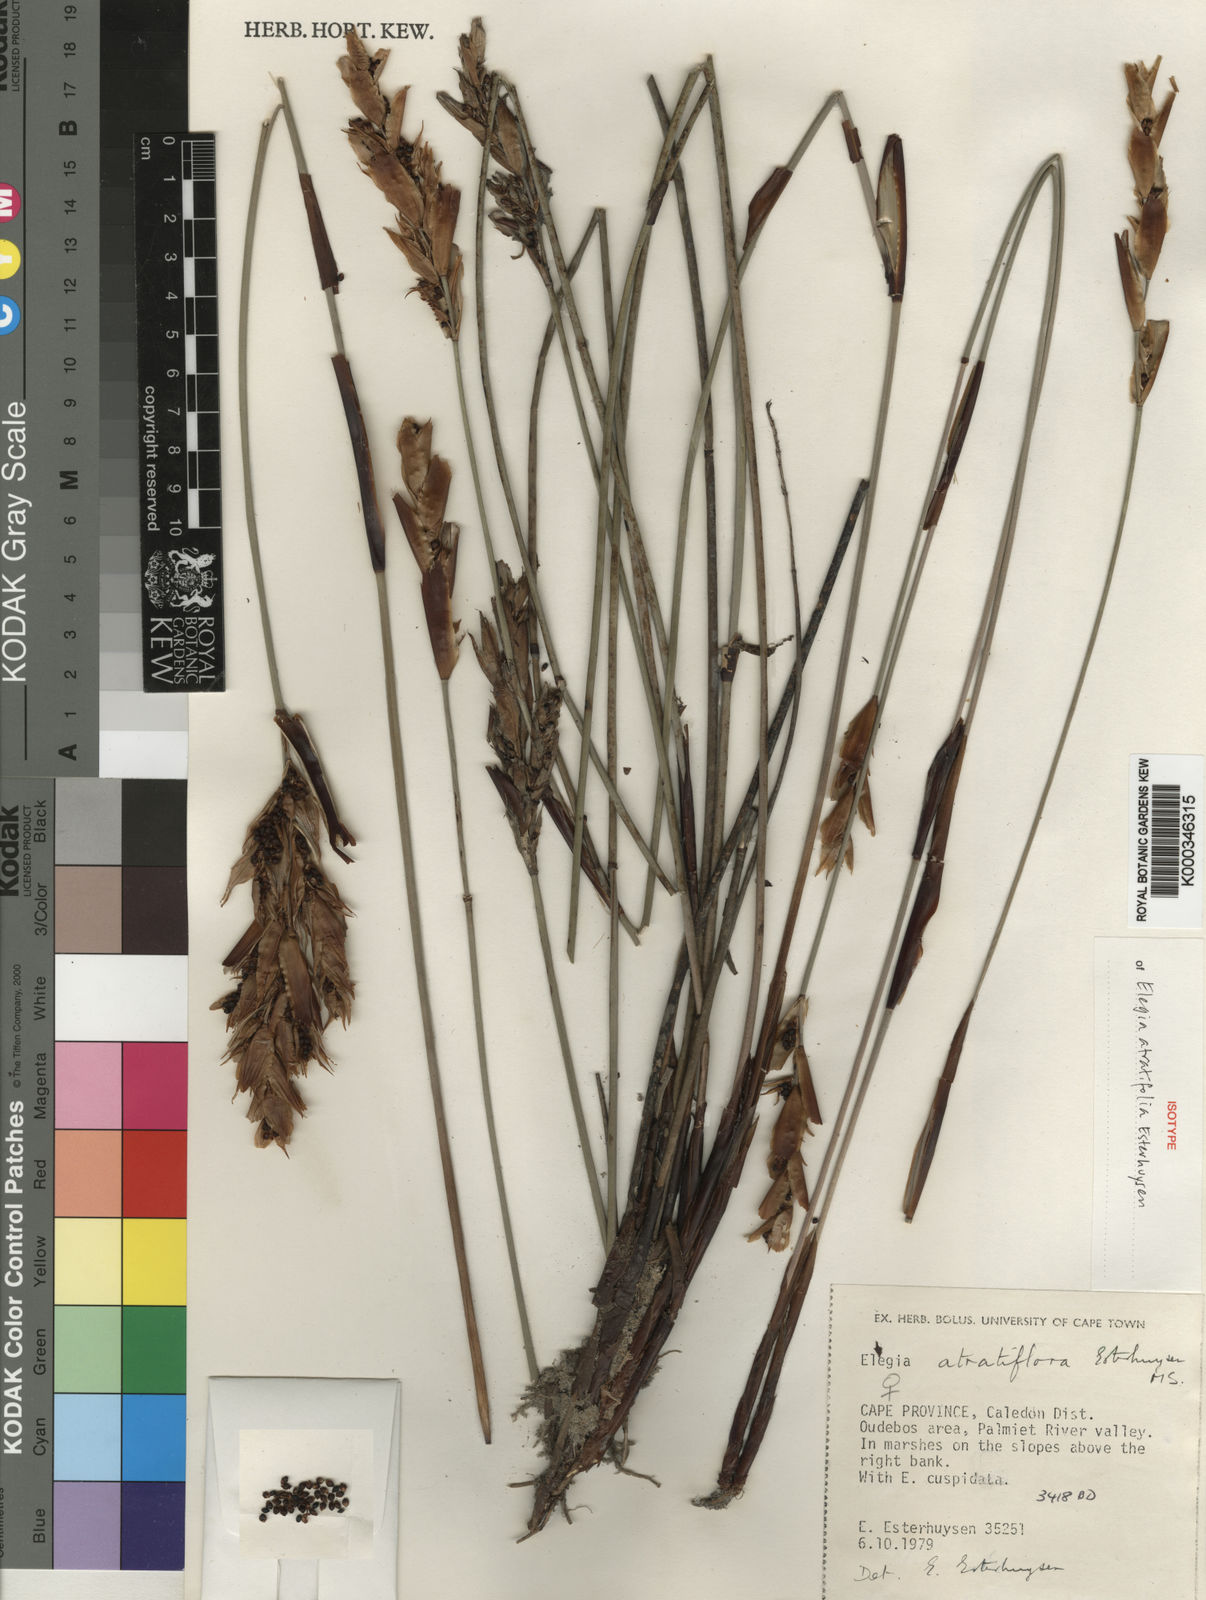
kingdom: Plantae
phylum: Tracheophyta
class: Liliopsida
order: Poales
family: Restionaceae
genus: Elegia
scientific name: Elegia atratiflora
